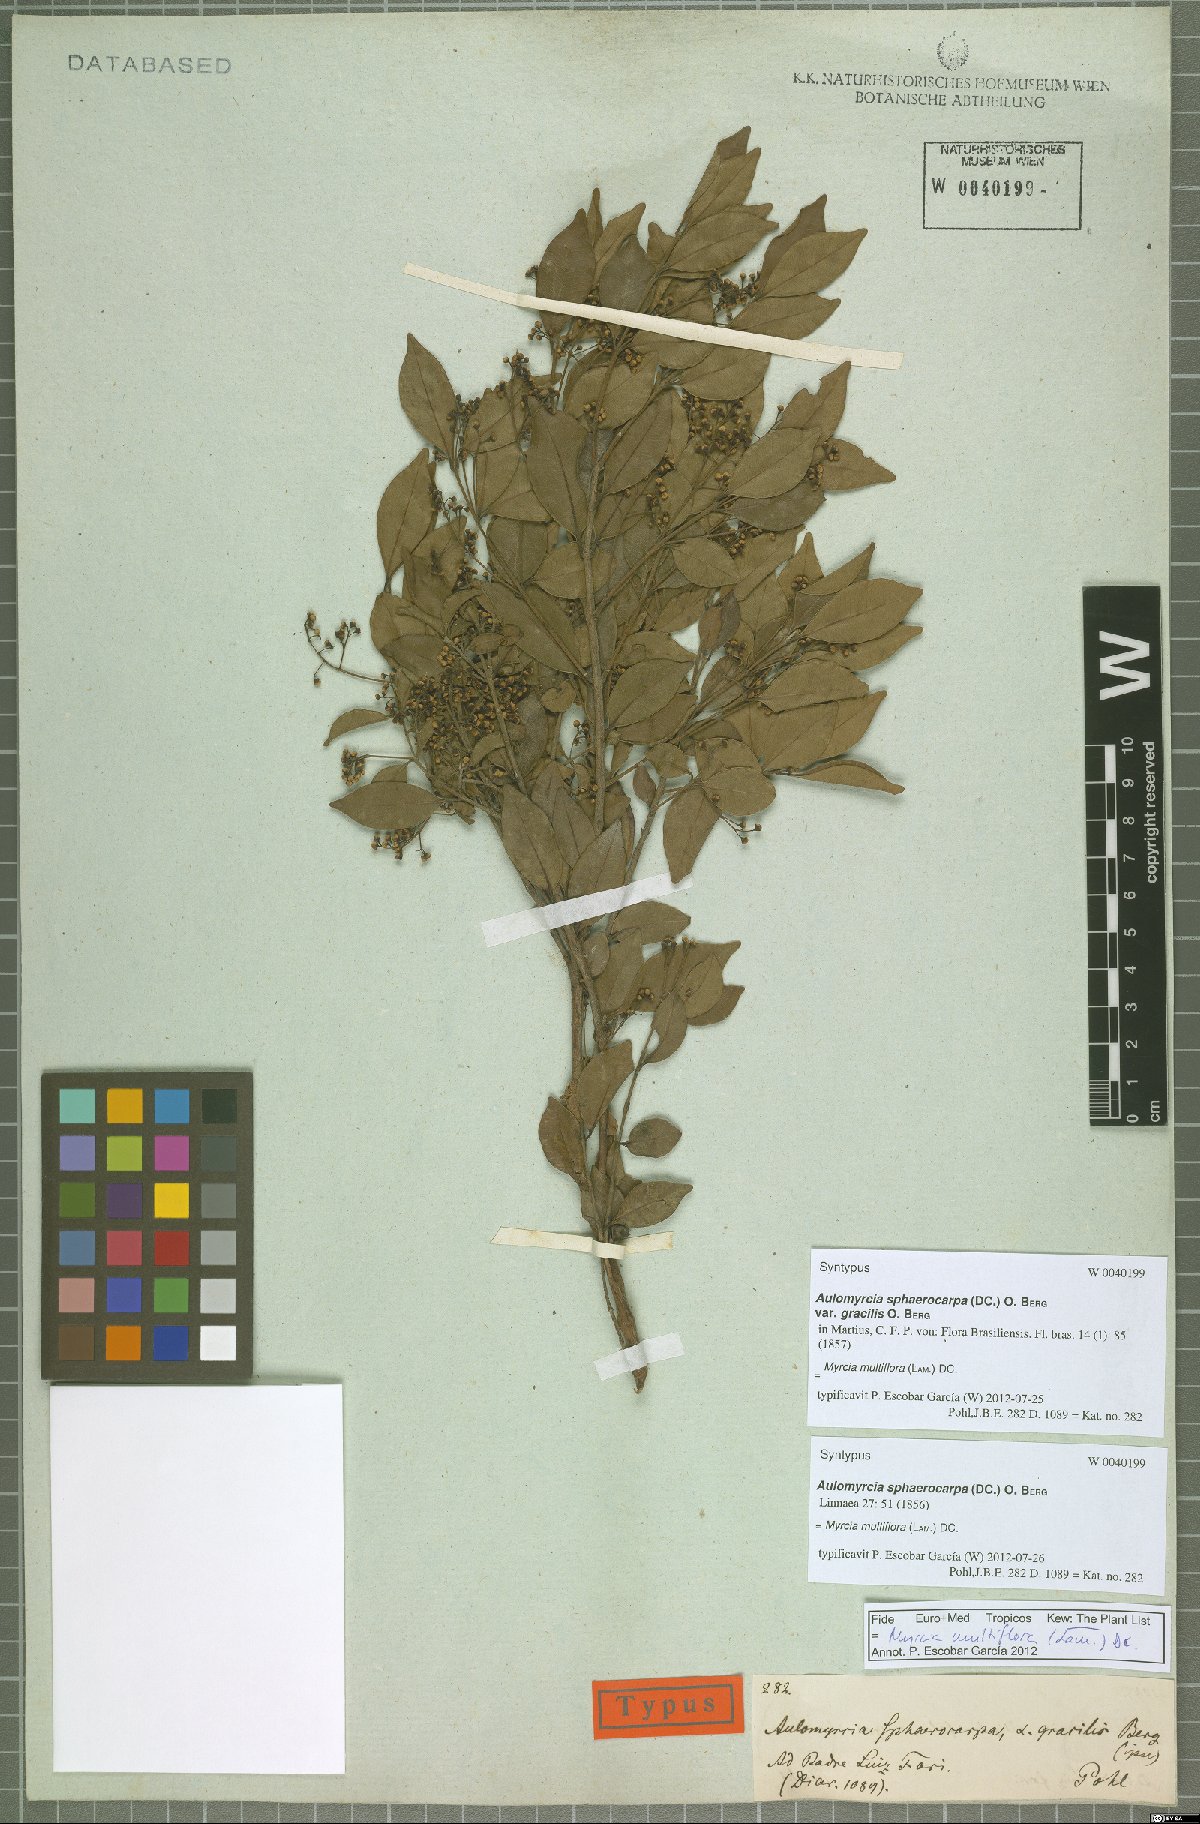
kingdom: Plantae
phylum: Tracheophyta
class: Magnoliopsida
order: Myrtales
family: Myrtaceae
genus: Myrcia
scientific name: Myrcia multiflora
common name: Pedra hume
